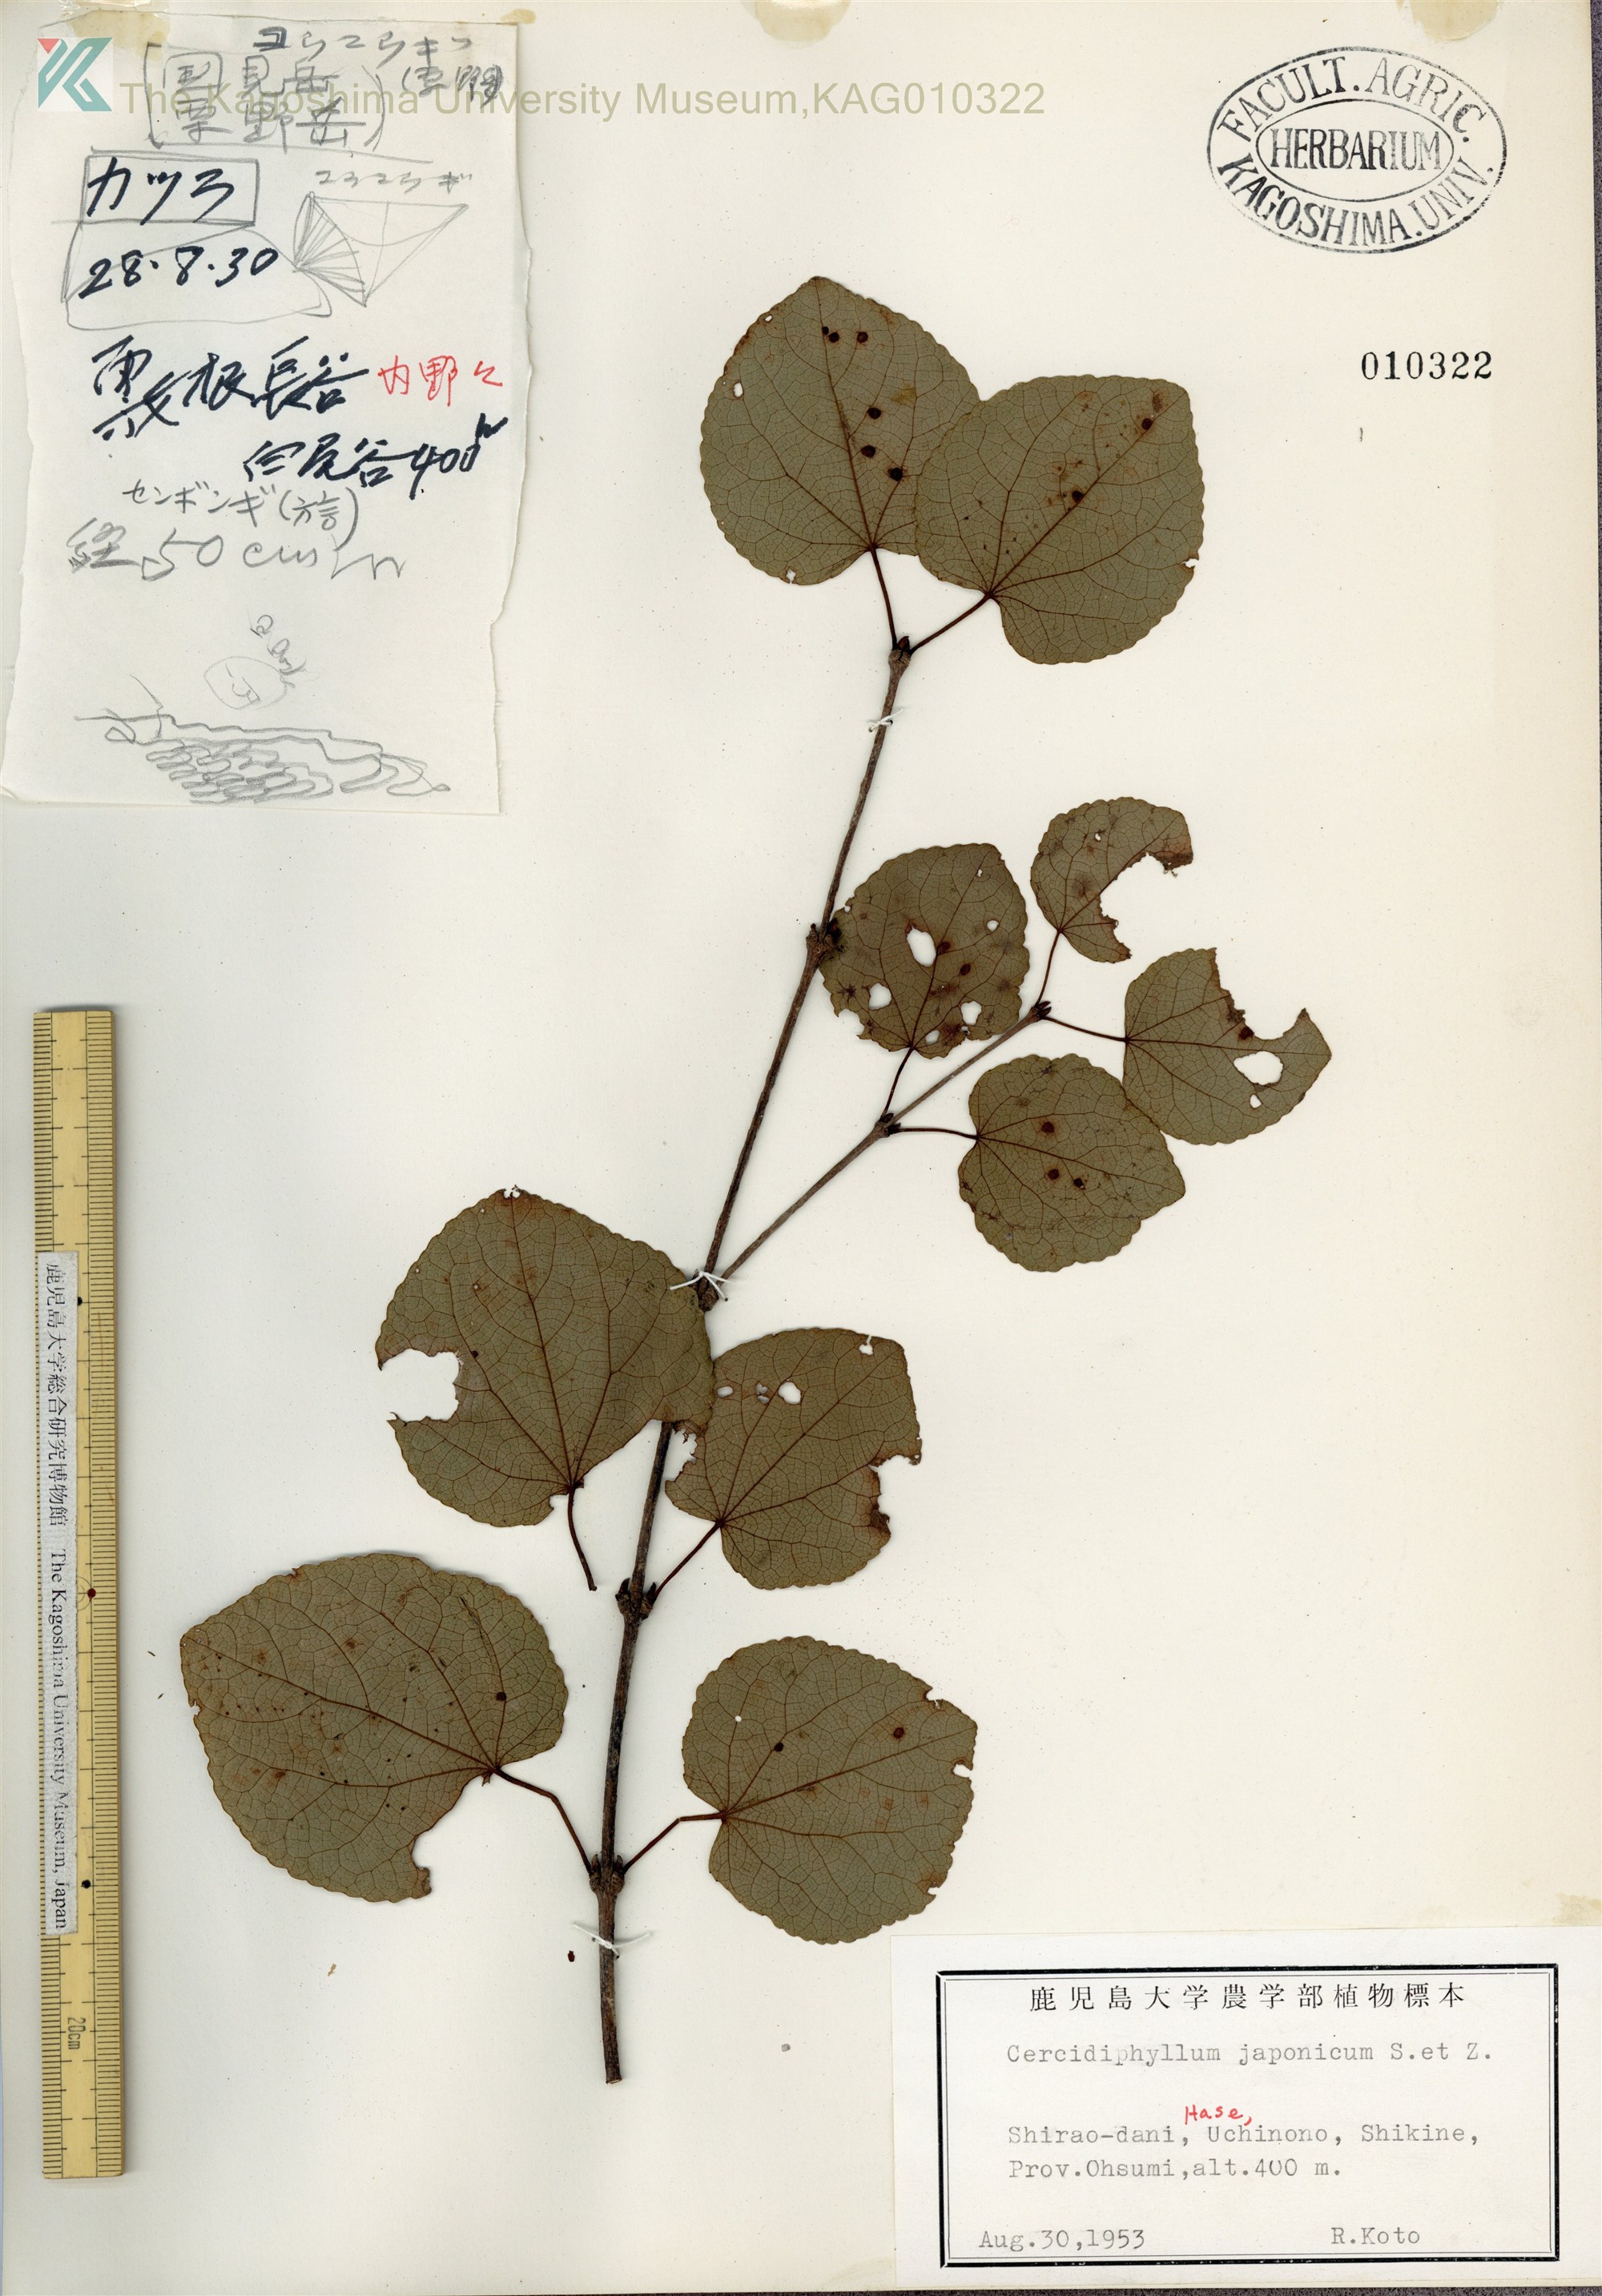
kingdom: Plantae
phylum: Tracheophyta
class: Magnoliopsida
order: Saxifragales
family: Cercidiphyllaceae
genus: Cercidiphyllum
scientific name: Cercidiphyllum japonicum
